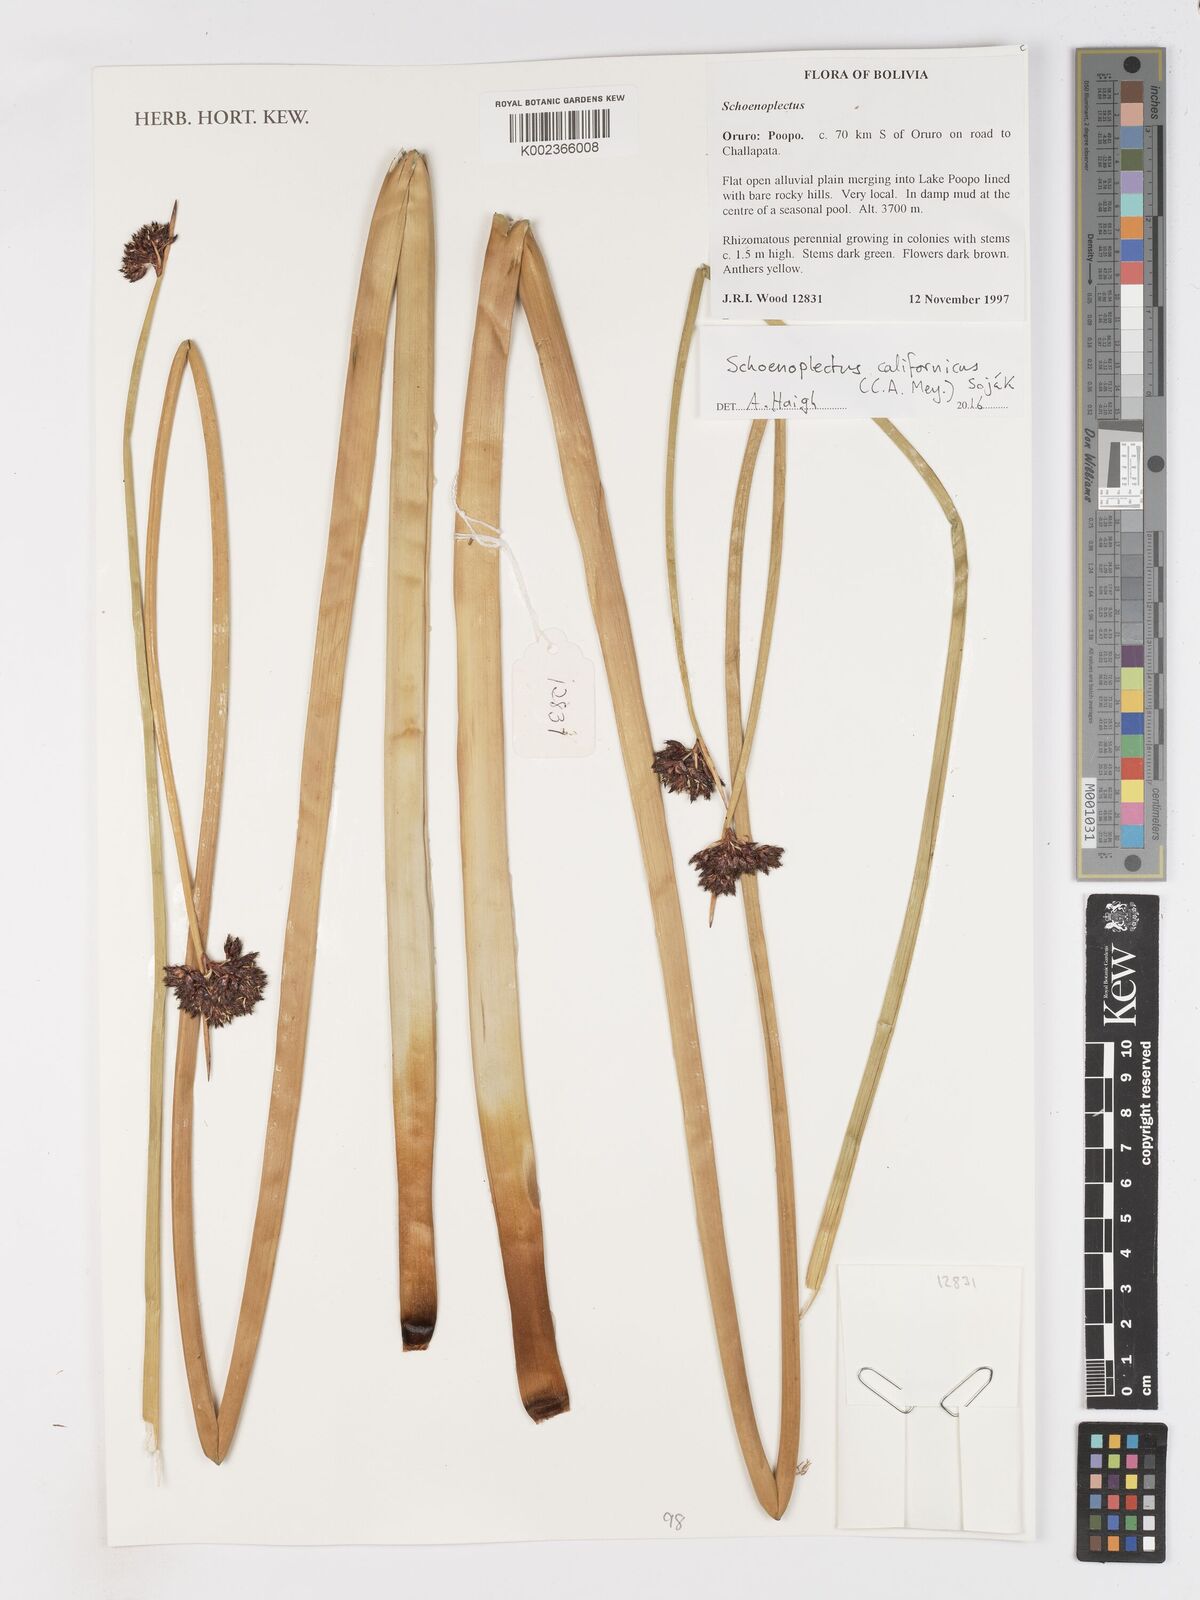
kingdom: Plantae
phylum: Tracheophyta
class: Liliopsida
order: Poales
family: Cyperaceae
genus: Schoenoplectus
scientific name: Schoenoplectus californicus
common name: California bulrush
